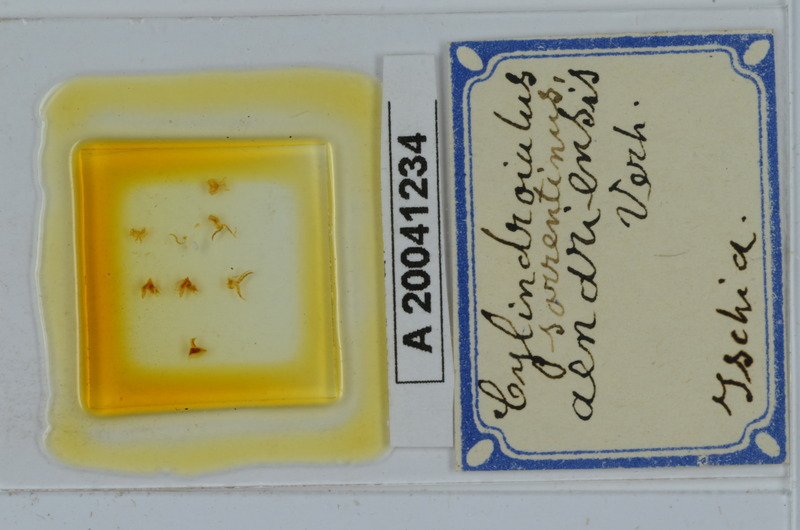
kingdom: Animalia
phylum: Arthropoda
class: Diplopoda
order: Julida
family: Julidae
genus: Cylindroiulus
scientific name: Cylindroiulus sorrentinus
